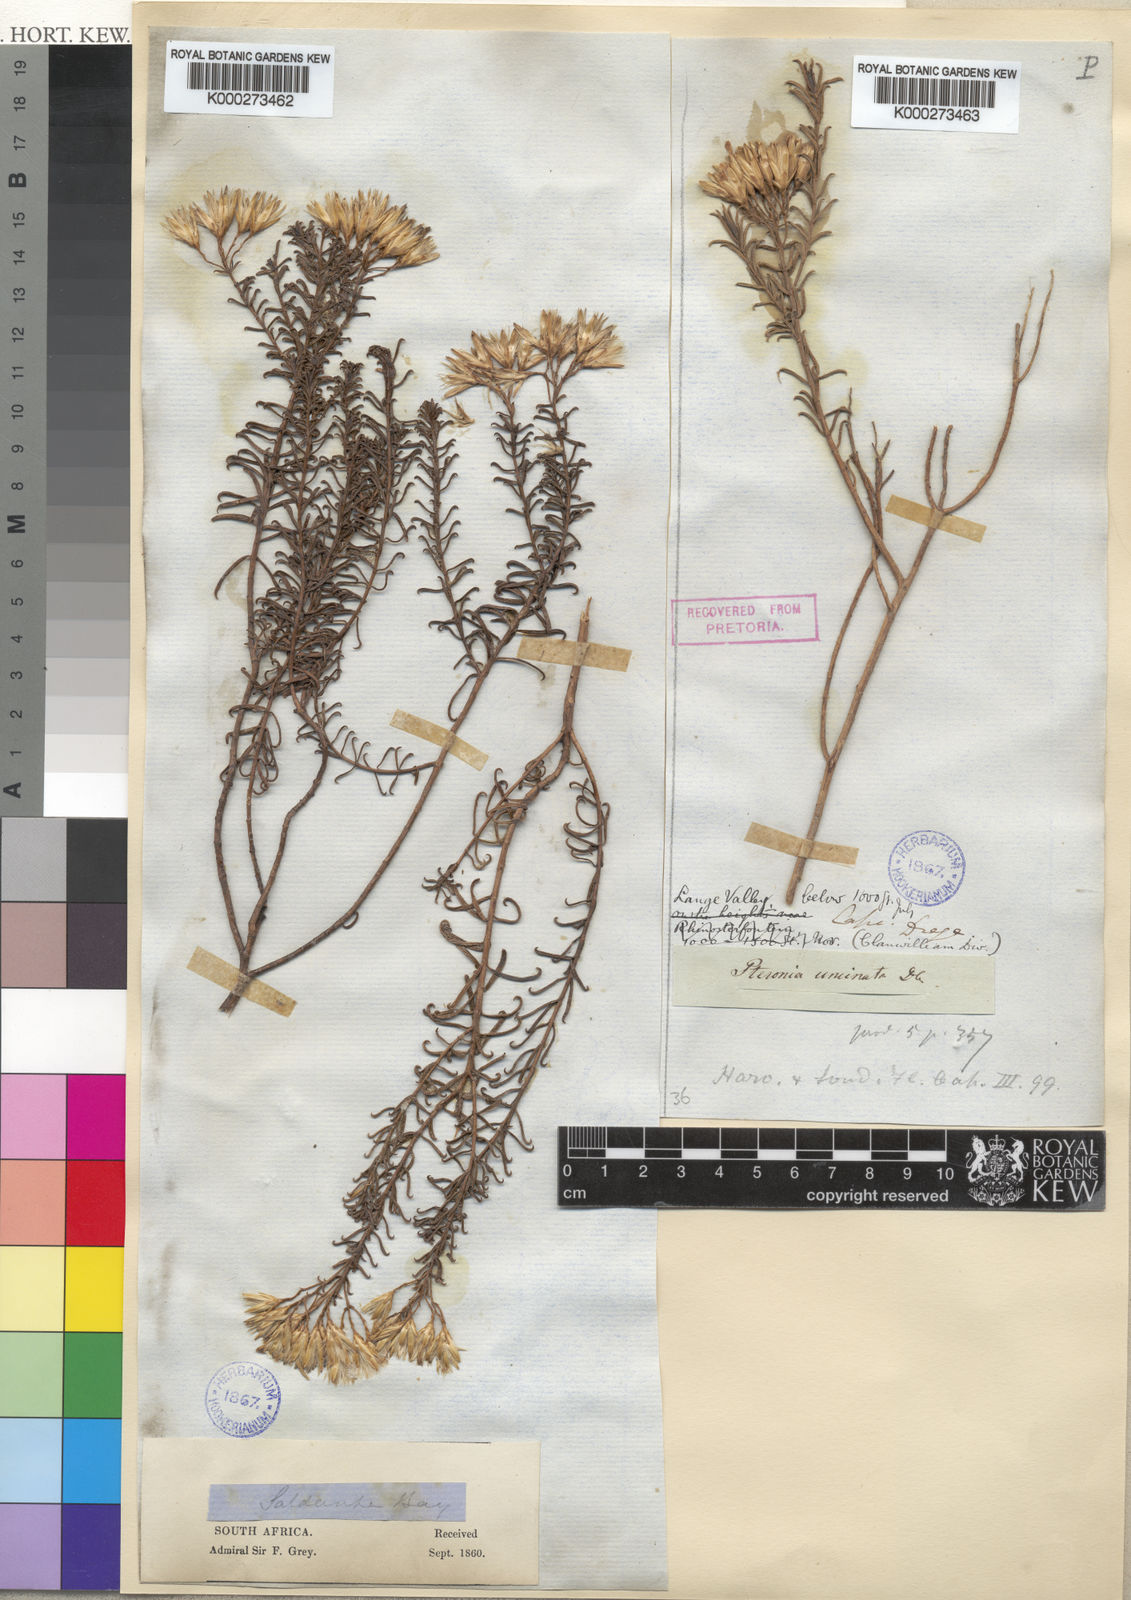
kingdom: Plantae
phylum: Tracheophyta
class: Magnoliopsida
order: Asterales
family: Asteraceae
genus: Pteronia
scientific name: Pteronia uncinata
